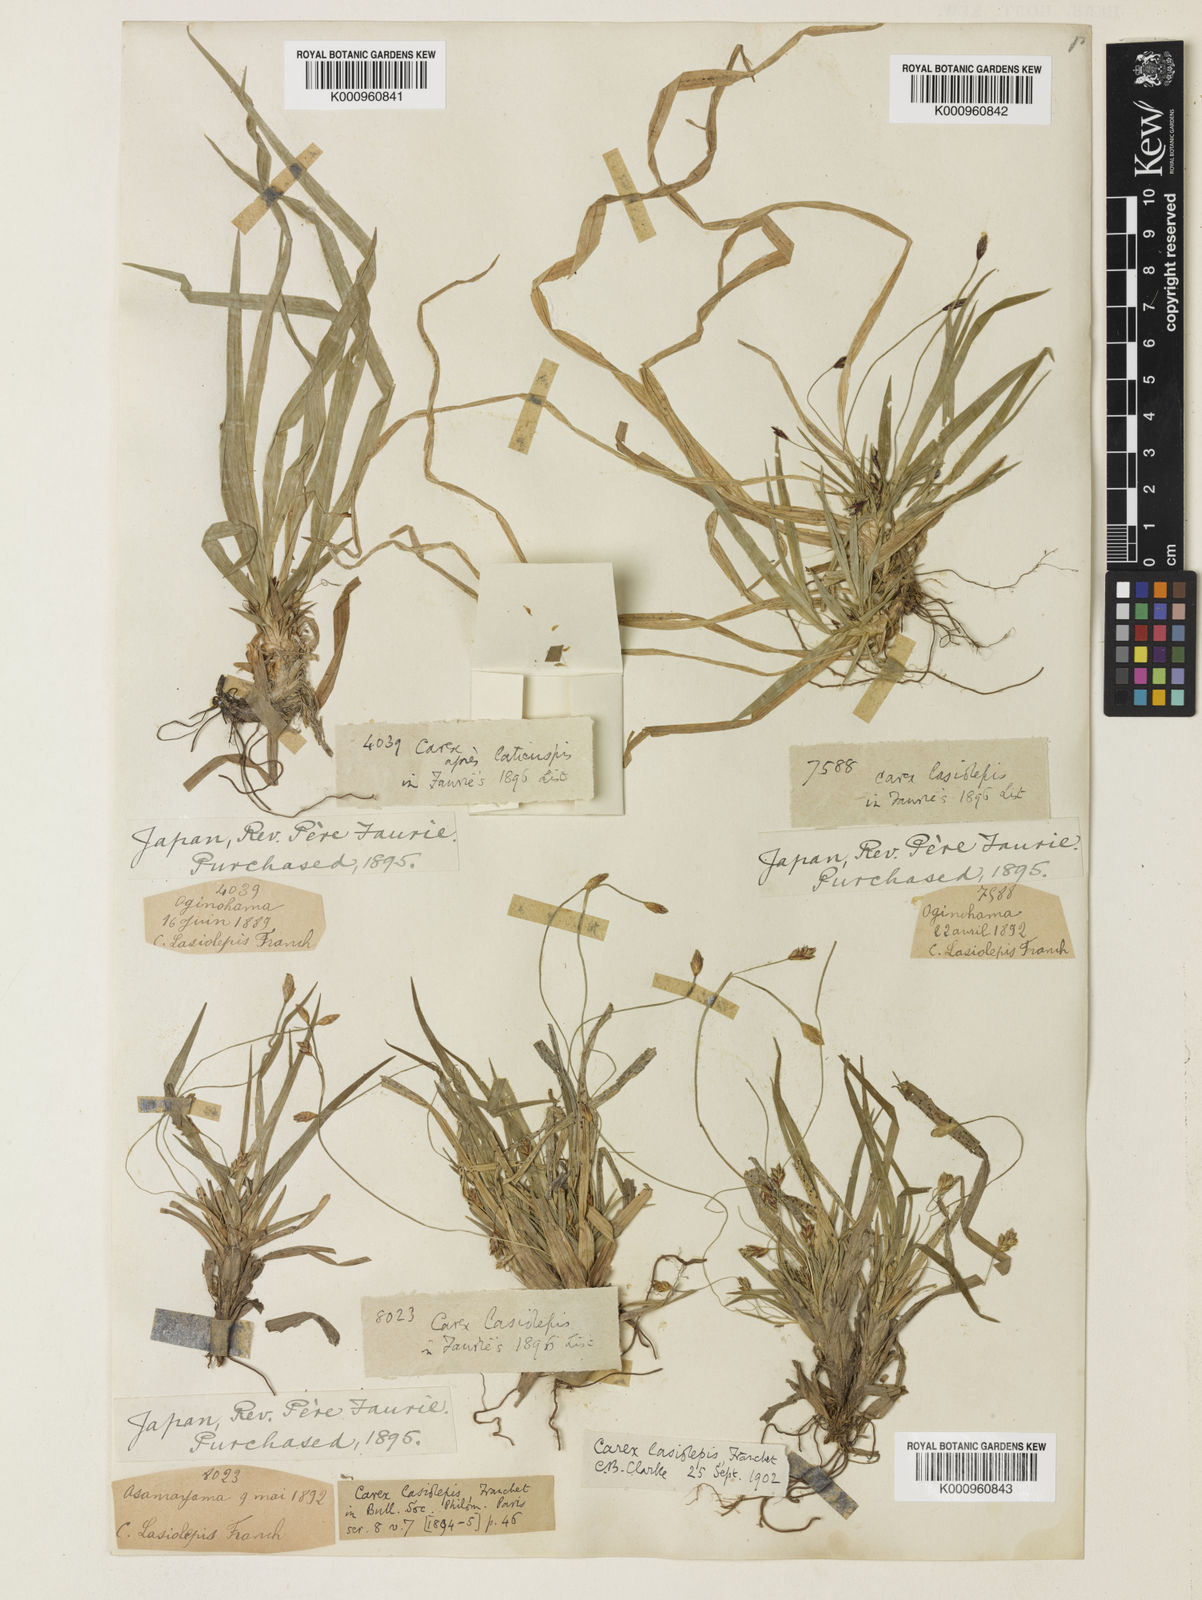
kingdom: Plantae
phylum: Tracheophyta
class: Liliopsida
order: Poales
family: Cyperaceae
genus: Carex
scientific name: Carex lasiolepis
